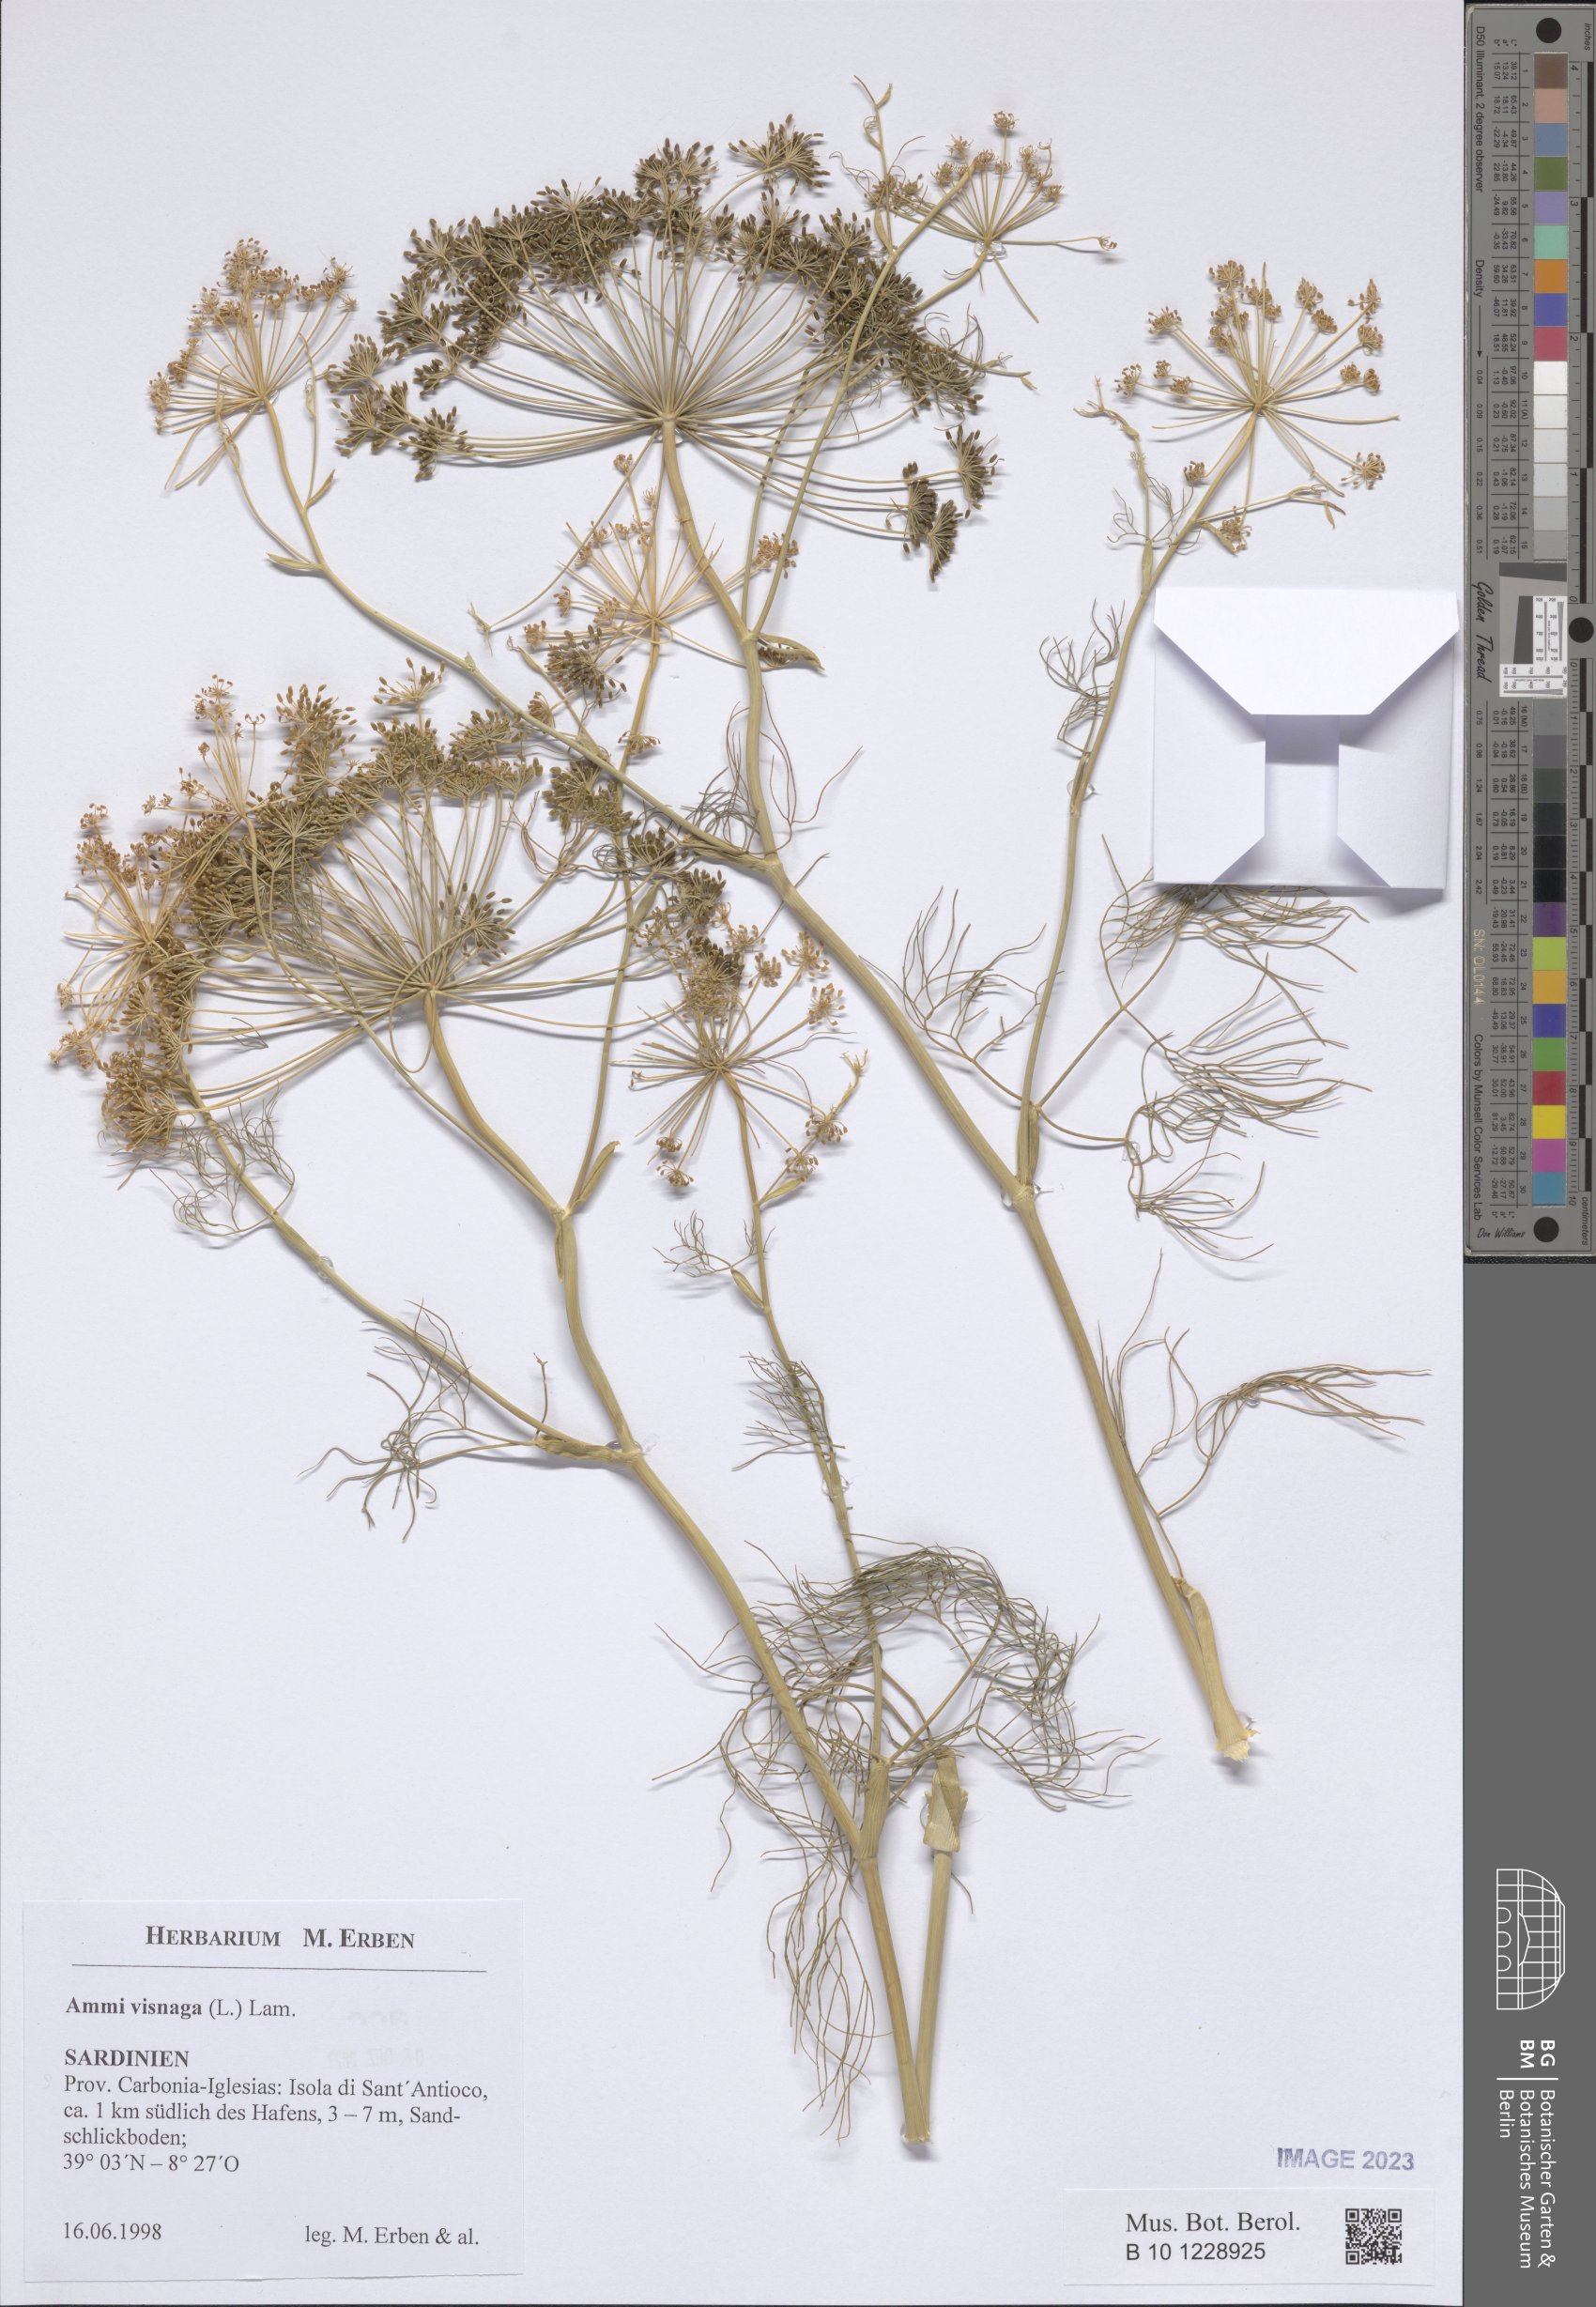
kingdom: Plantae
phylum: Tracheophyta
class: Magnoliopsida
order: Apiales
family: Apiaceae
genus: Visnaga
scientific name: Visnaga daucoides
